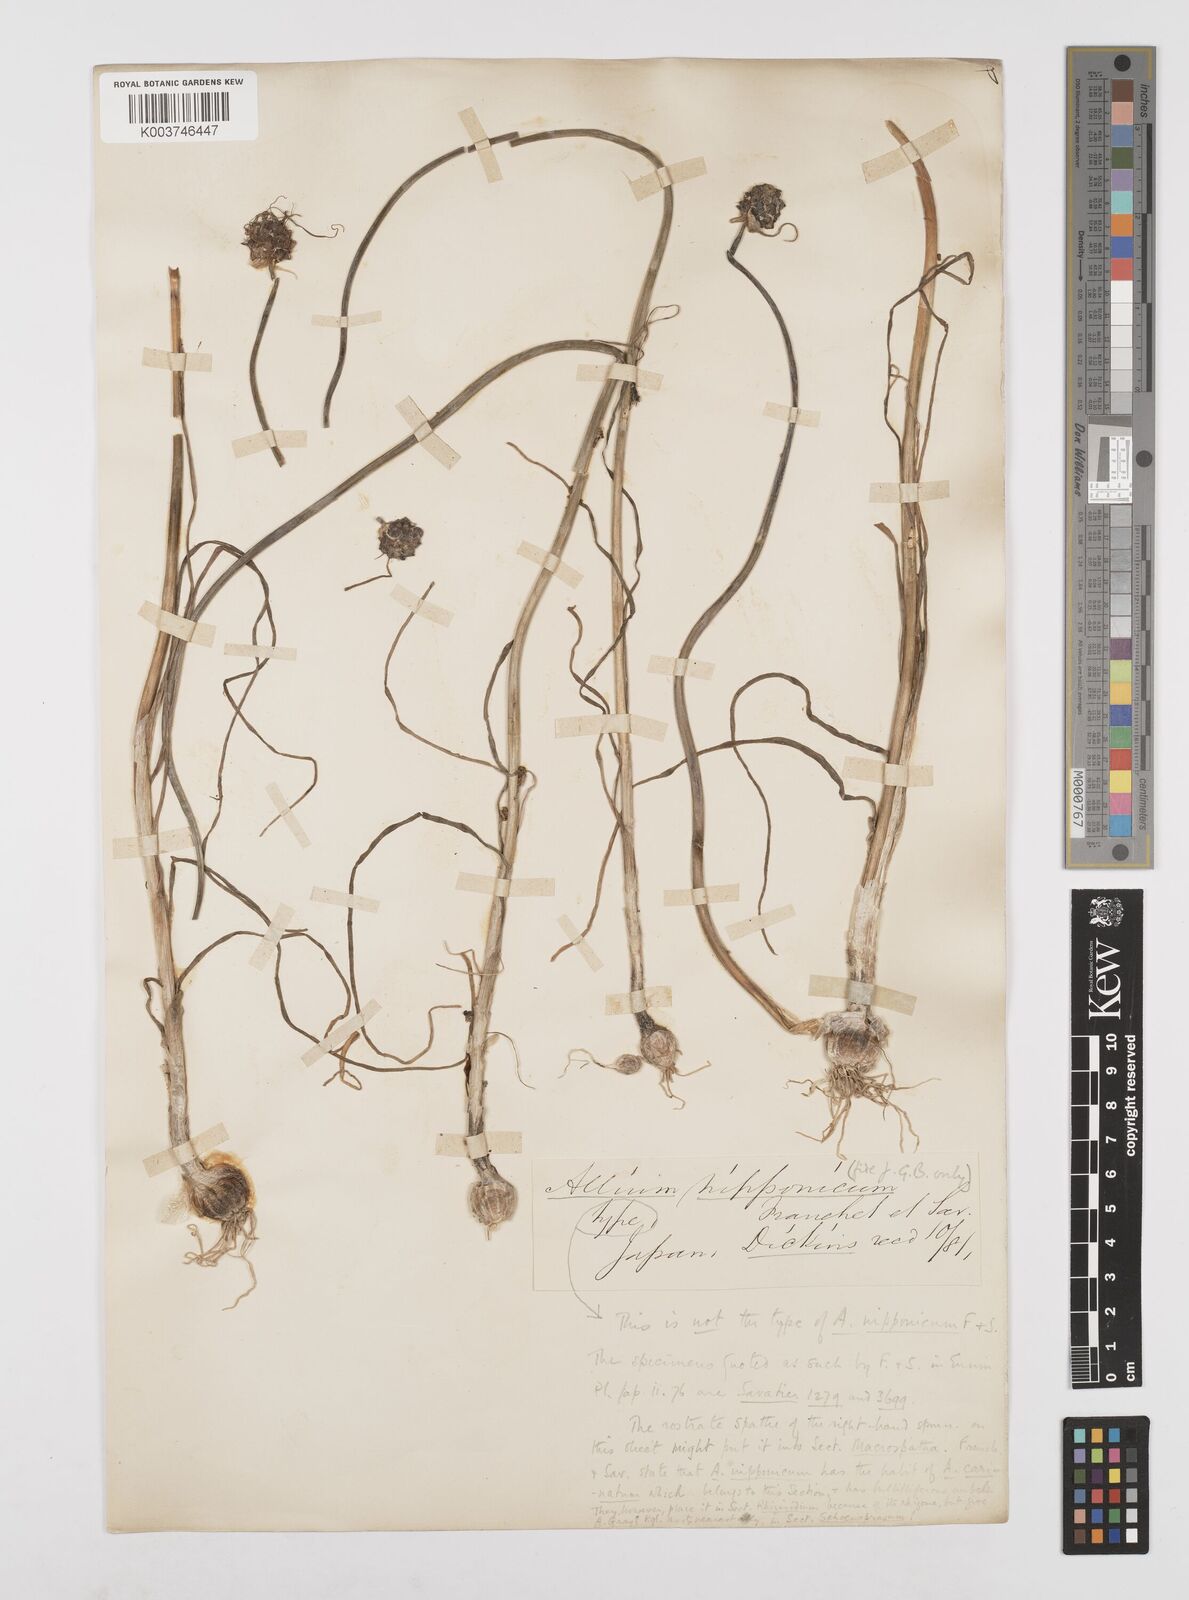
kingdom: Plantae
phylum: Tracheophyta
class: Liliopsida
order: Asparagales
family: Amaryllidaceae
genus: Allium
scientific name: Allium macrostemon
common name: Chinese garlic
